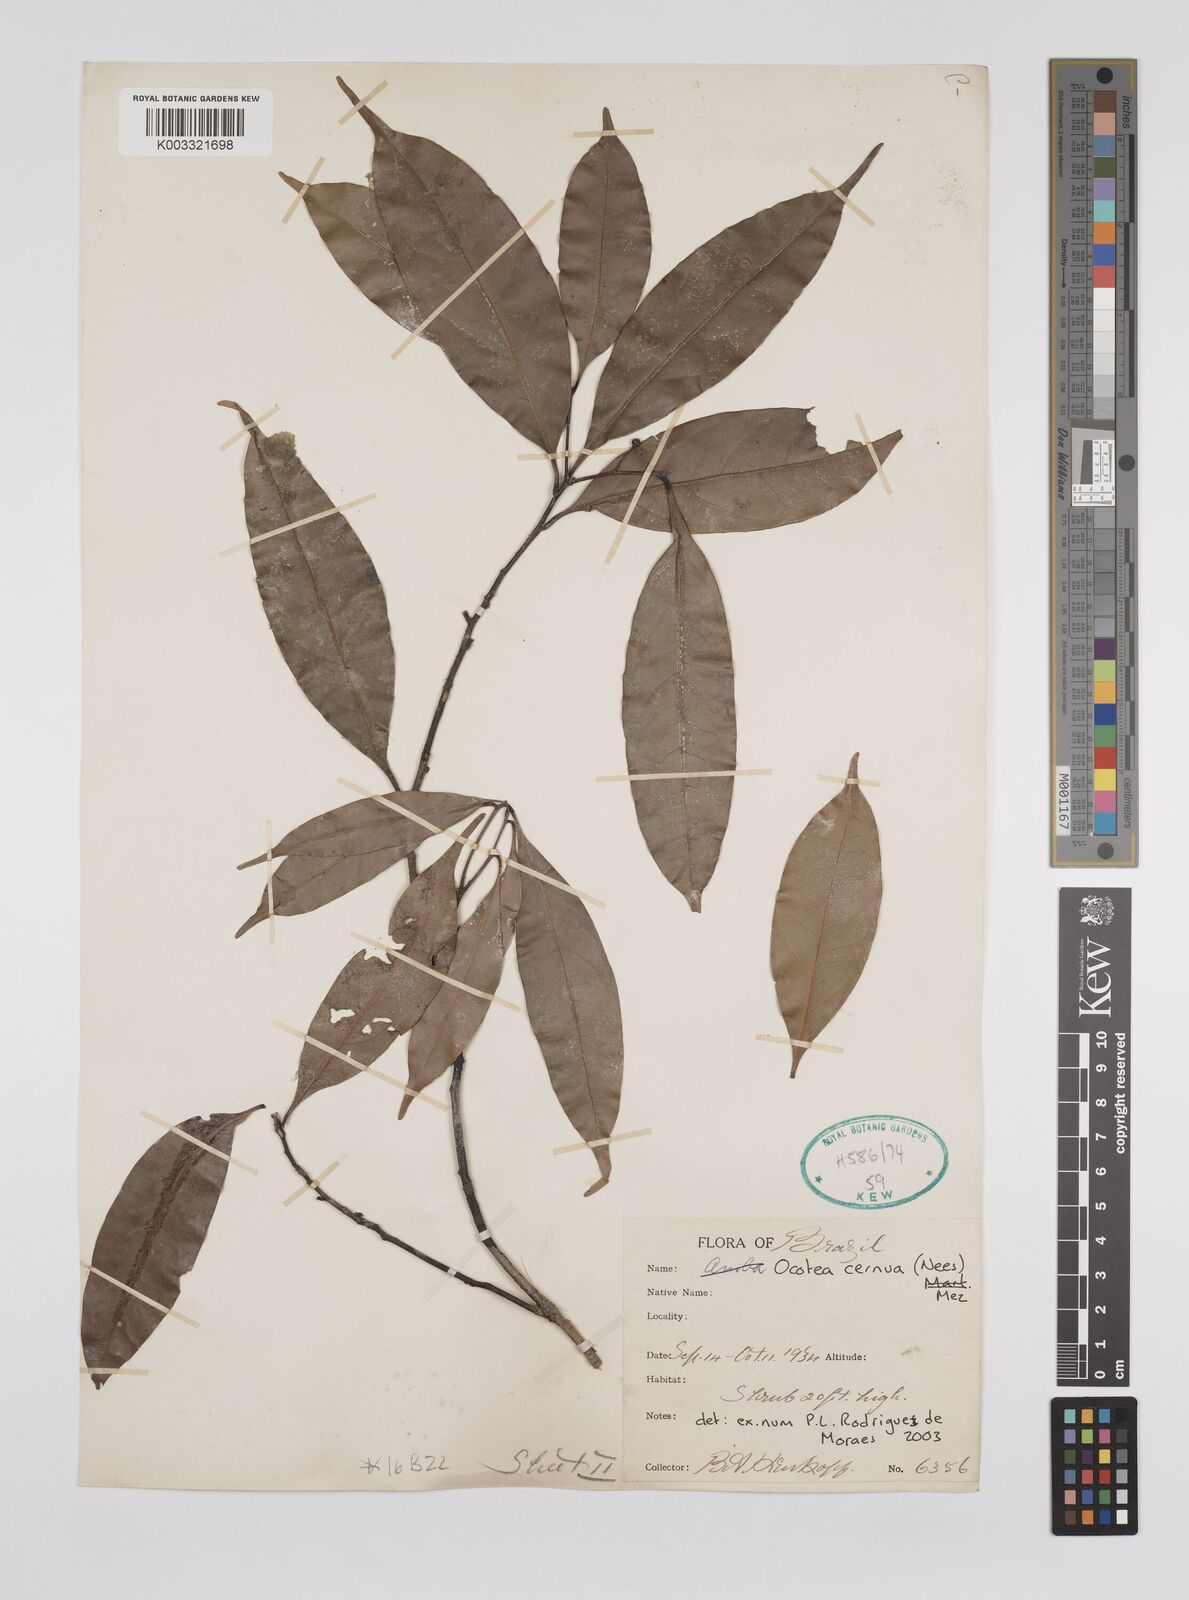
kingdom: Plantae
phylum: Tracheophyta
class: Magnoliopsida
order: Laurales
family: Lauraceae
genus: Ocotea
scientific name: Ocotea leptobotra
